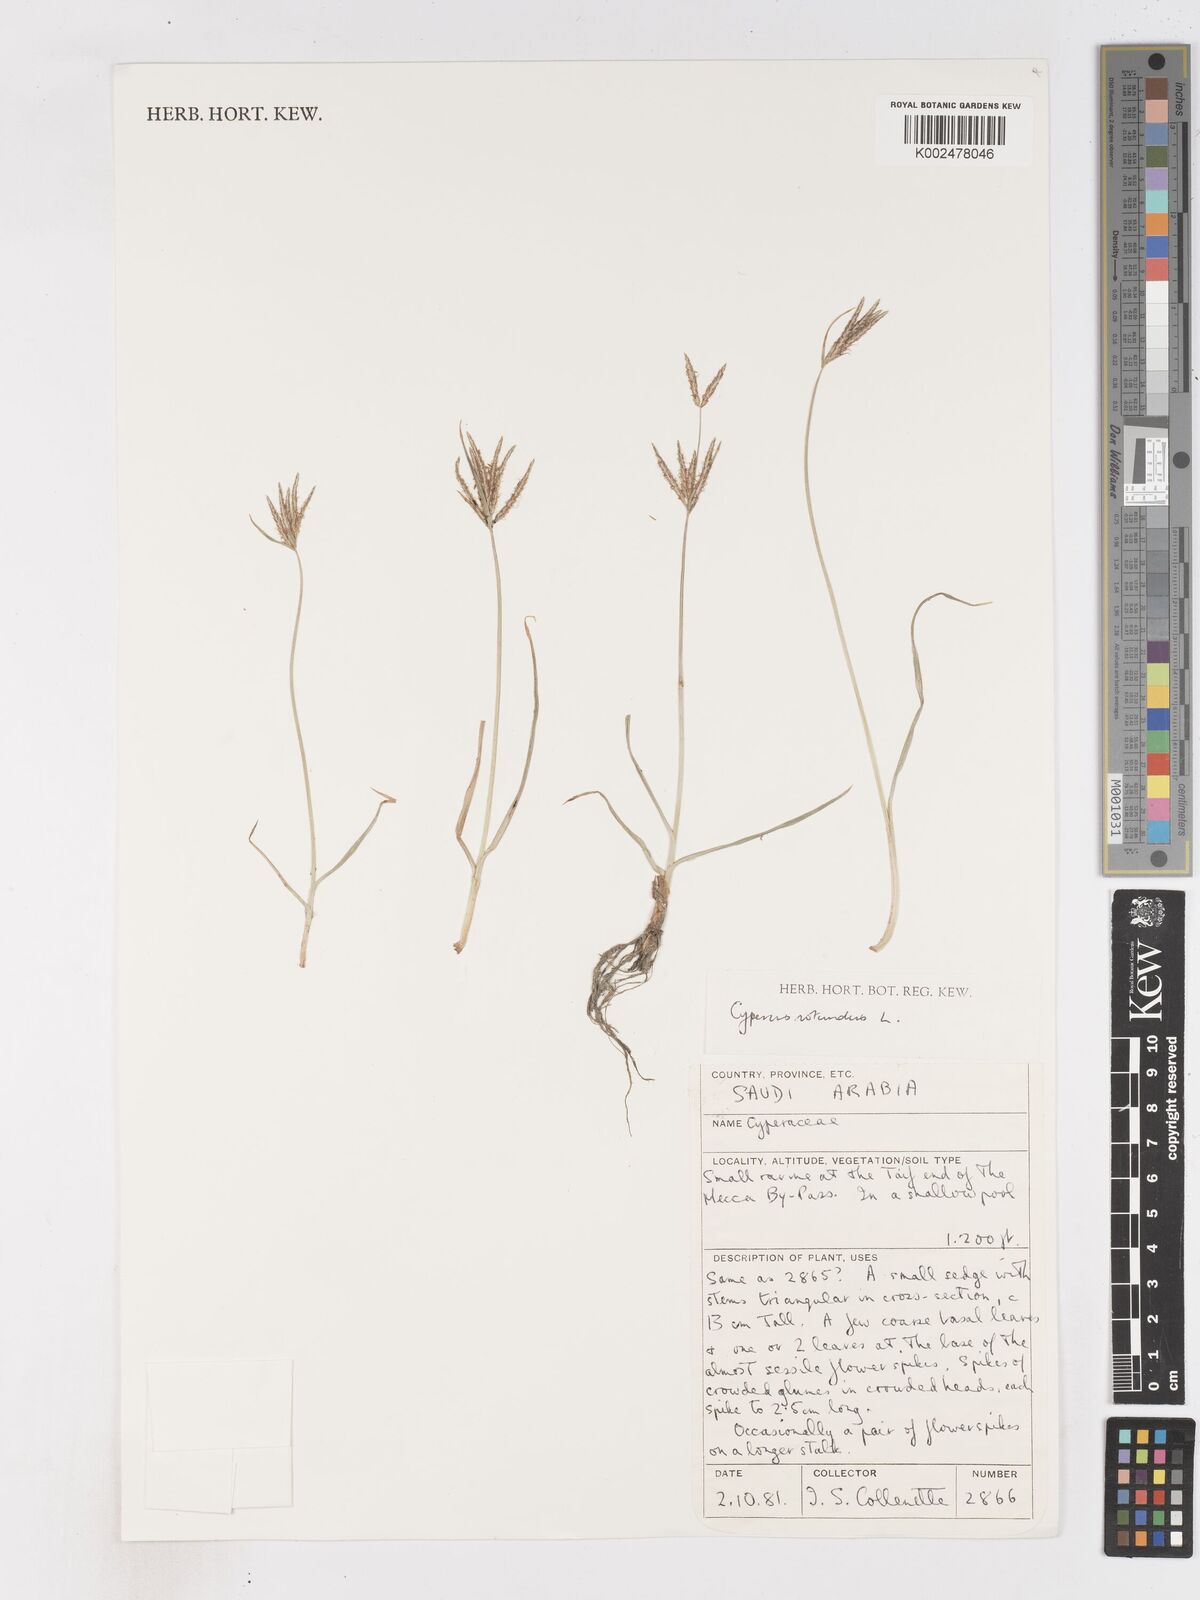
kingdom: Plantae
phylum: Tracheophyta
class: Liliopsida
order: Poales
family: Cyperaceae
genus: Cyperus
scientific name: Cyperus rotundus
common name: Nutgrass
